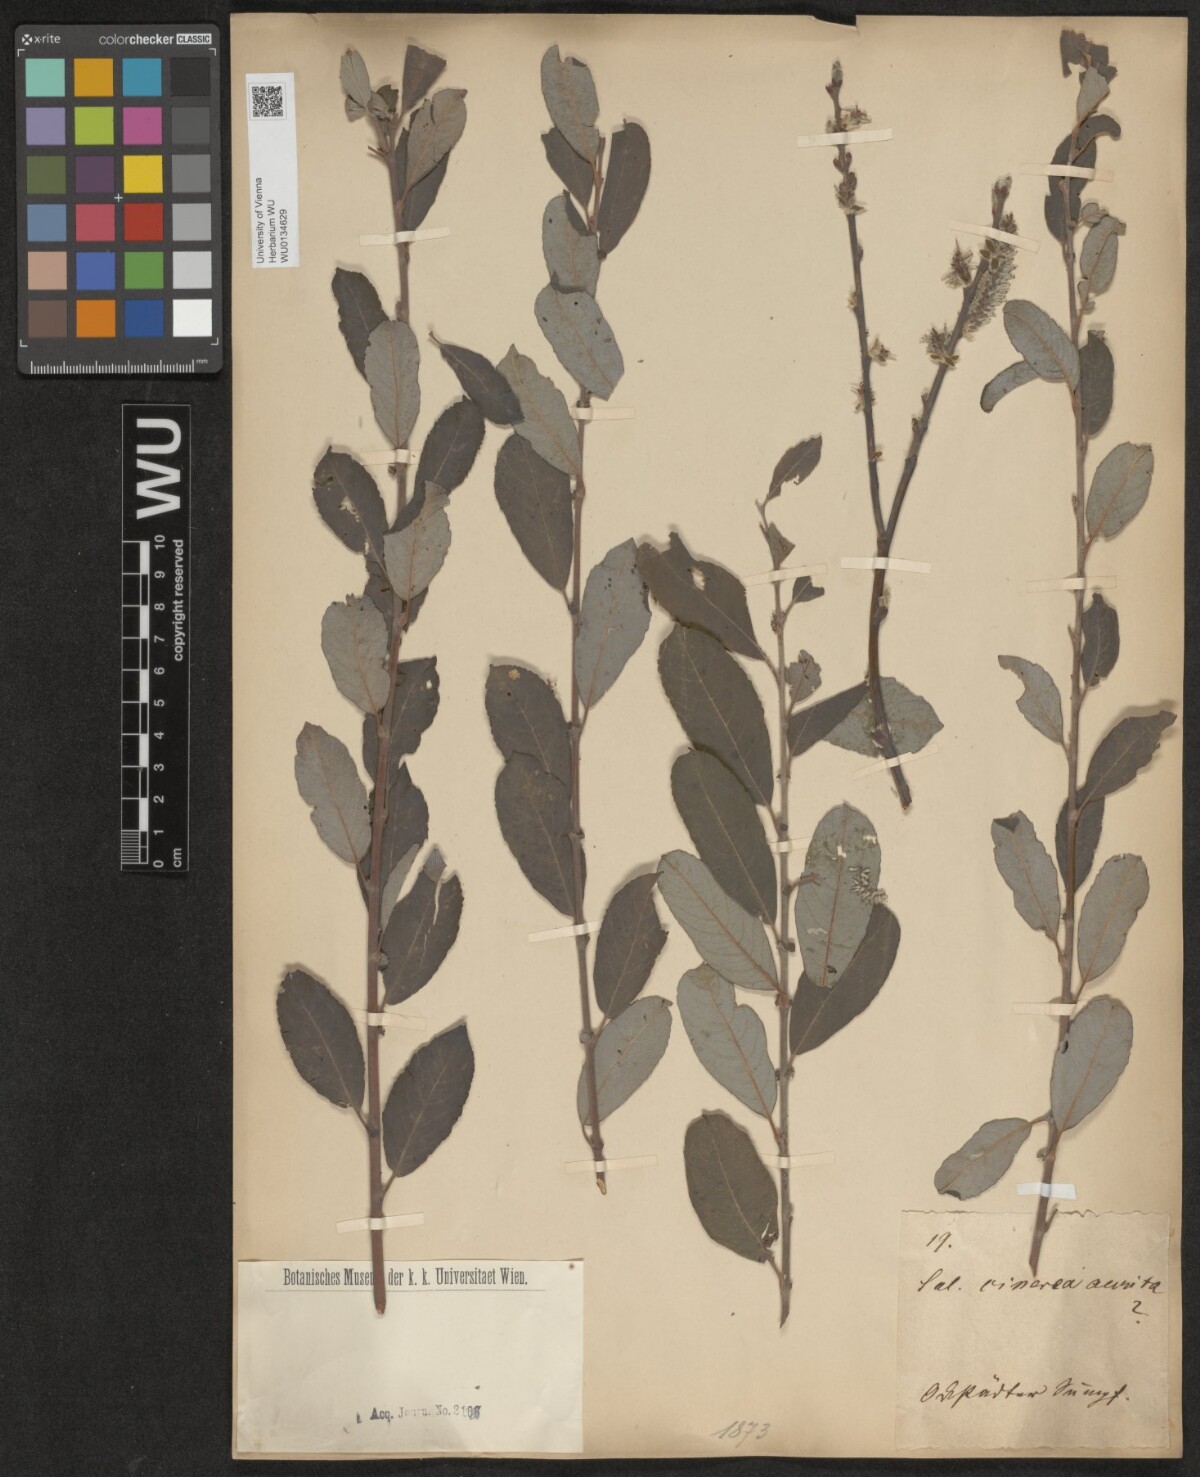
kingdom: Plantae
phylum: Tracheophyta
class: Magnoliopsida
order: Malpighiales
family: Salicaceae
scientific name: Salicaceae
